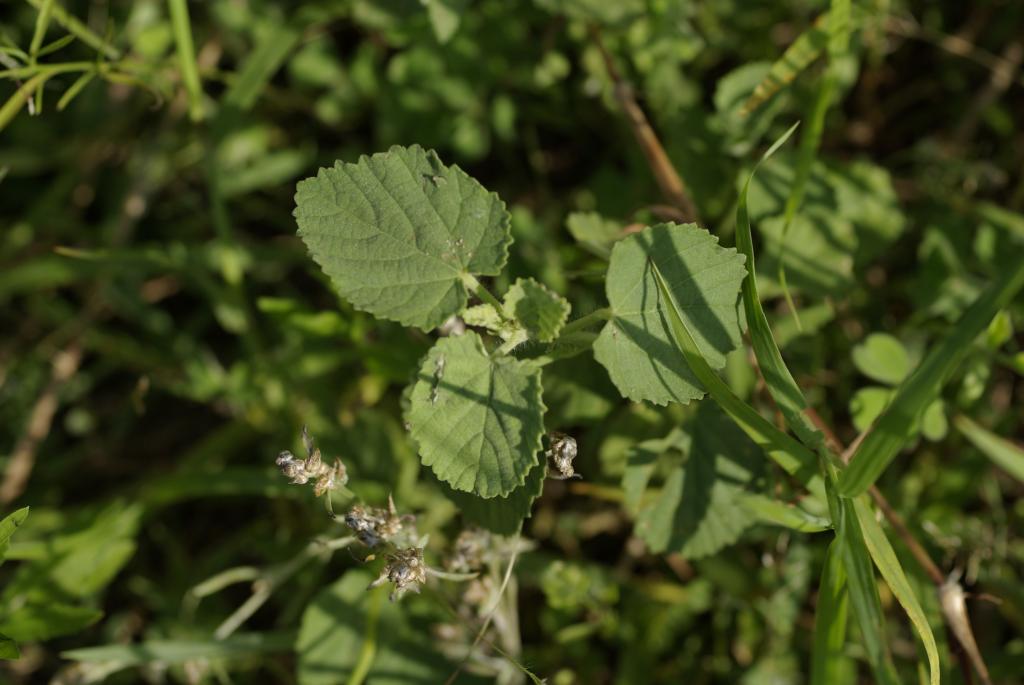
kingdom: Plantae
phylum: Tracheophyta
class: Magnoliopsida
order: Malvales
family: Malvaceae
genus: Sida
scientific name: Sida cordifolia
